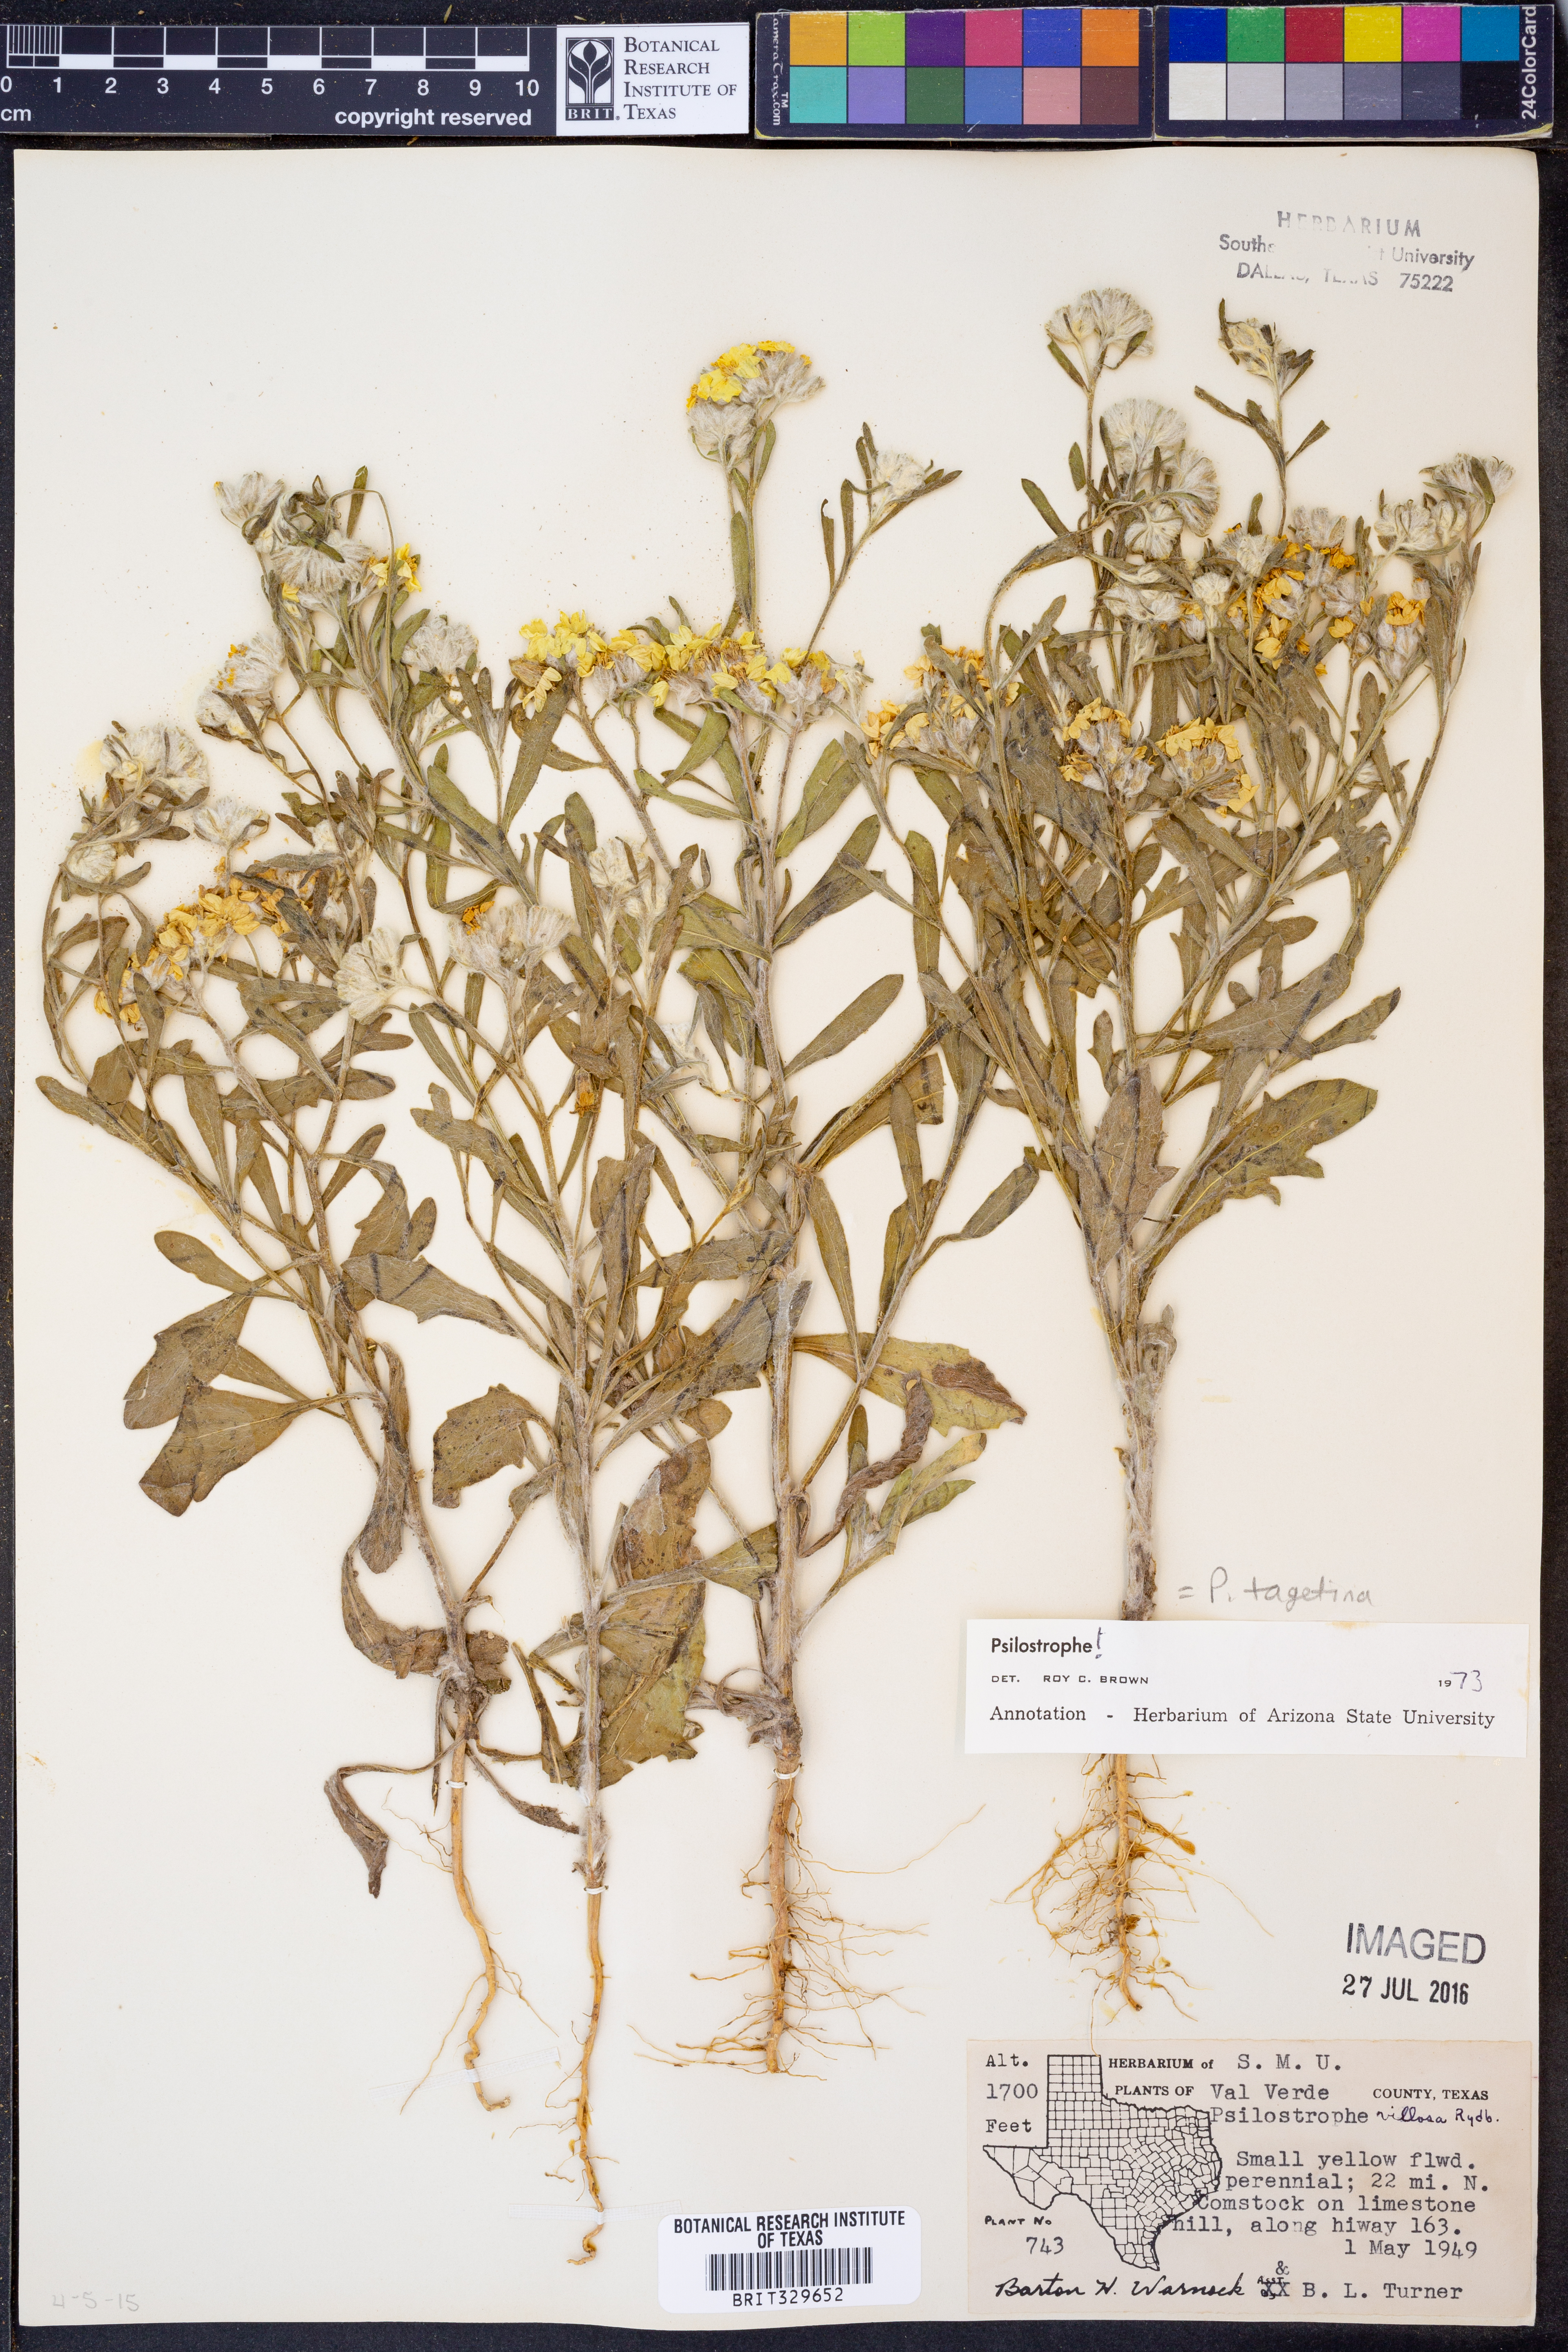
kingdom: Plantae
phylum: Tracheophyta
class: Magnoliopsida
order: Asterales
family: Asteraceae
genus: Psilostrophe
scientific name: Psilostrophe tagetina
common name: Marigold paper-flower
